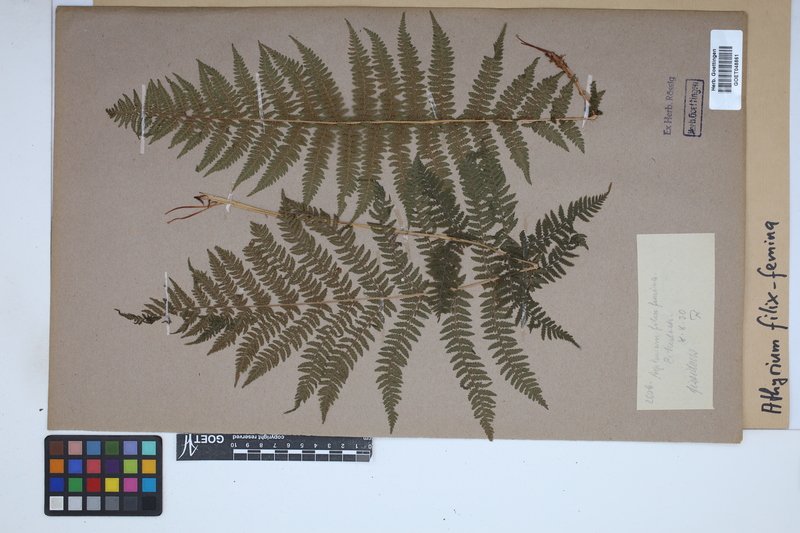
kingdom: Plantae
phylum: Tracheophyta
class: Polypodiopsida
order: Polypodiales
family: Athyriaceae
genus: Athyrium
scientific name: Athyrium filix-femina
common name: Lady fern
